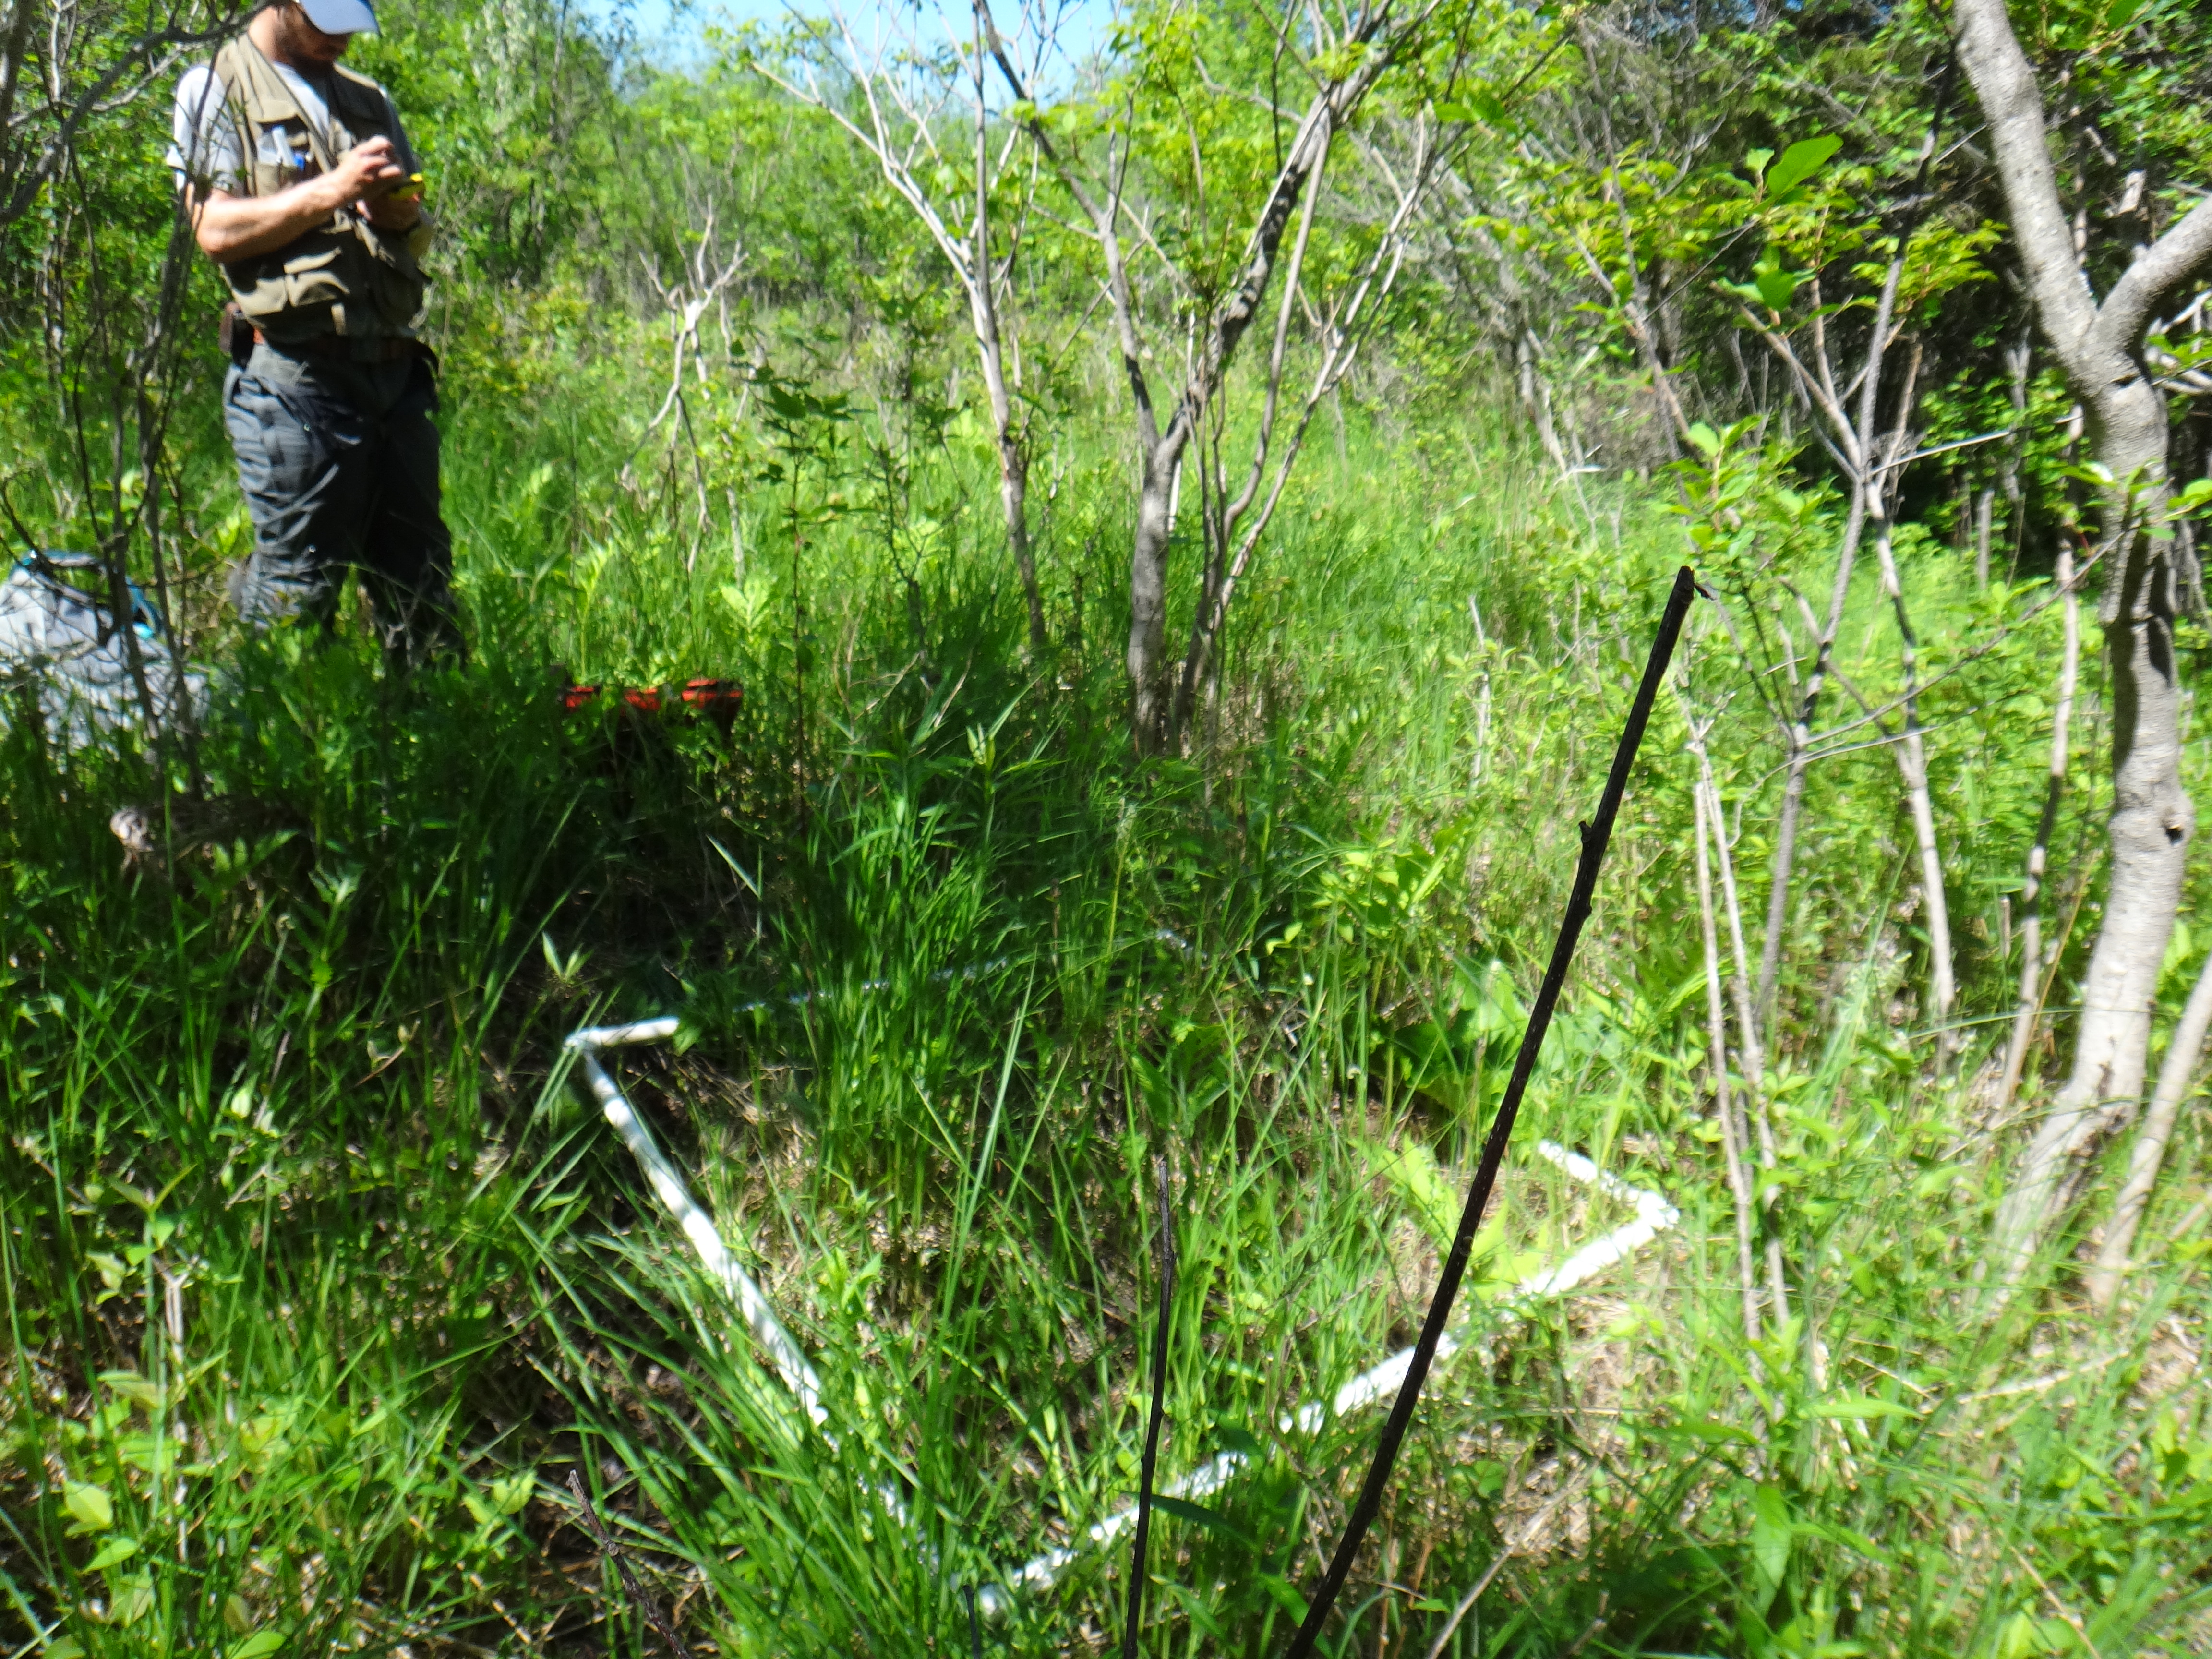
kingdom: Plantae
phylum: Tracheophyta
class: Magnoliopsida
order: Asterales
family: Asteraceae
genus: Solidago
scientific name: Solidago patula
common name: Rough-leaf goldenrod
